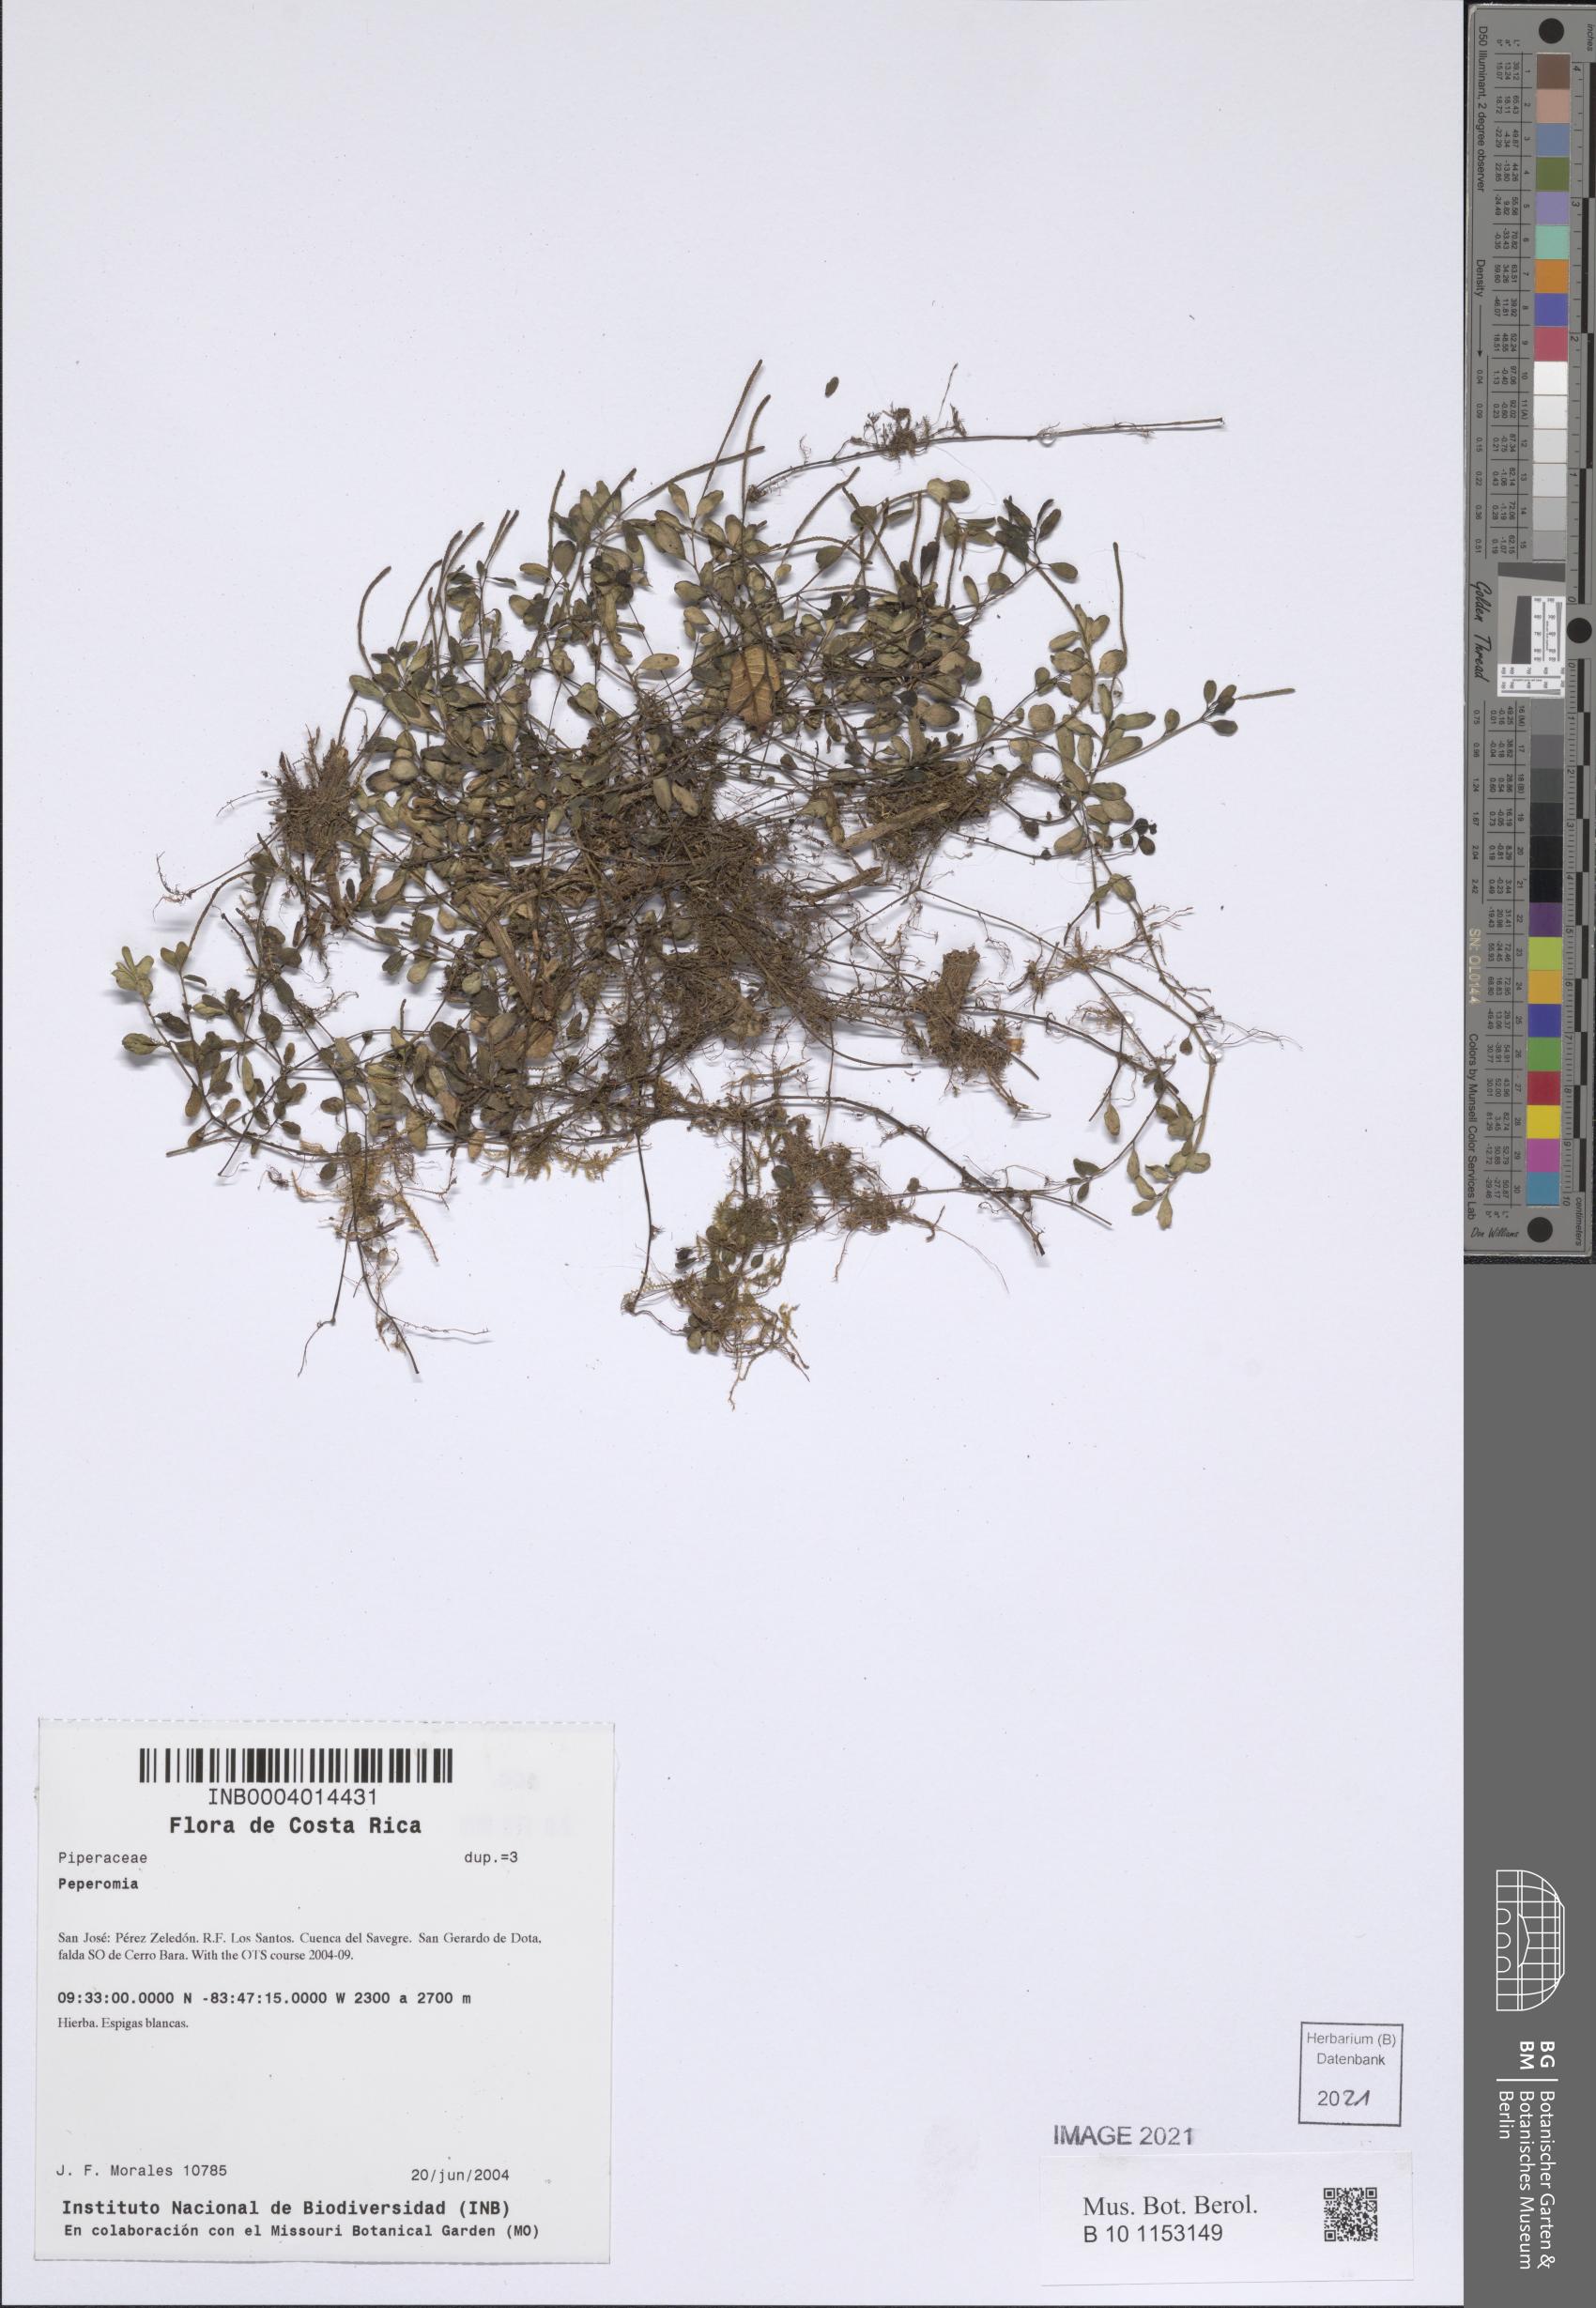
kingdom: Plantae
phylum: Tracheophyta
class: Magnoliopsida
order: Piperales
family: Piperaceae
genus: Peperomia
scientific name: Peperomia
